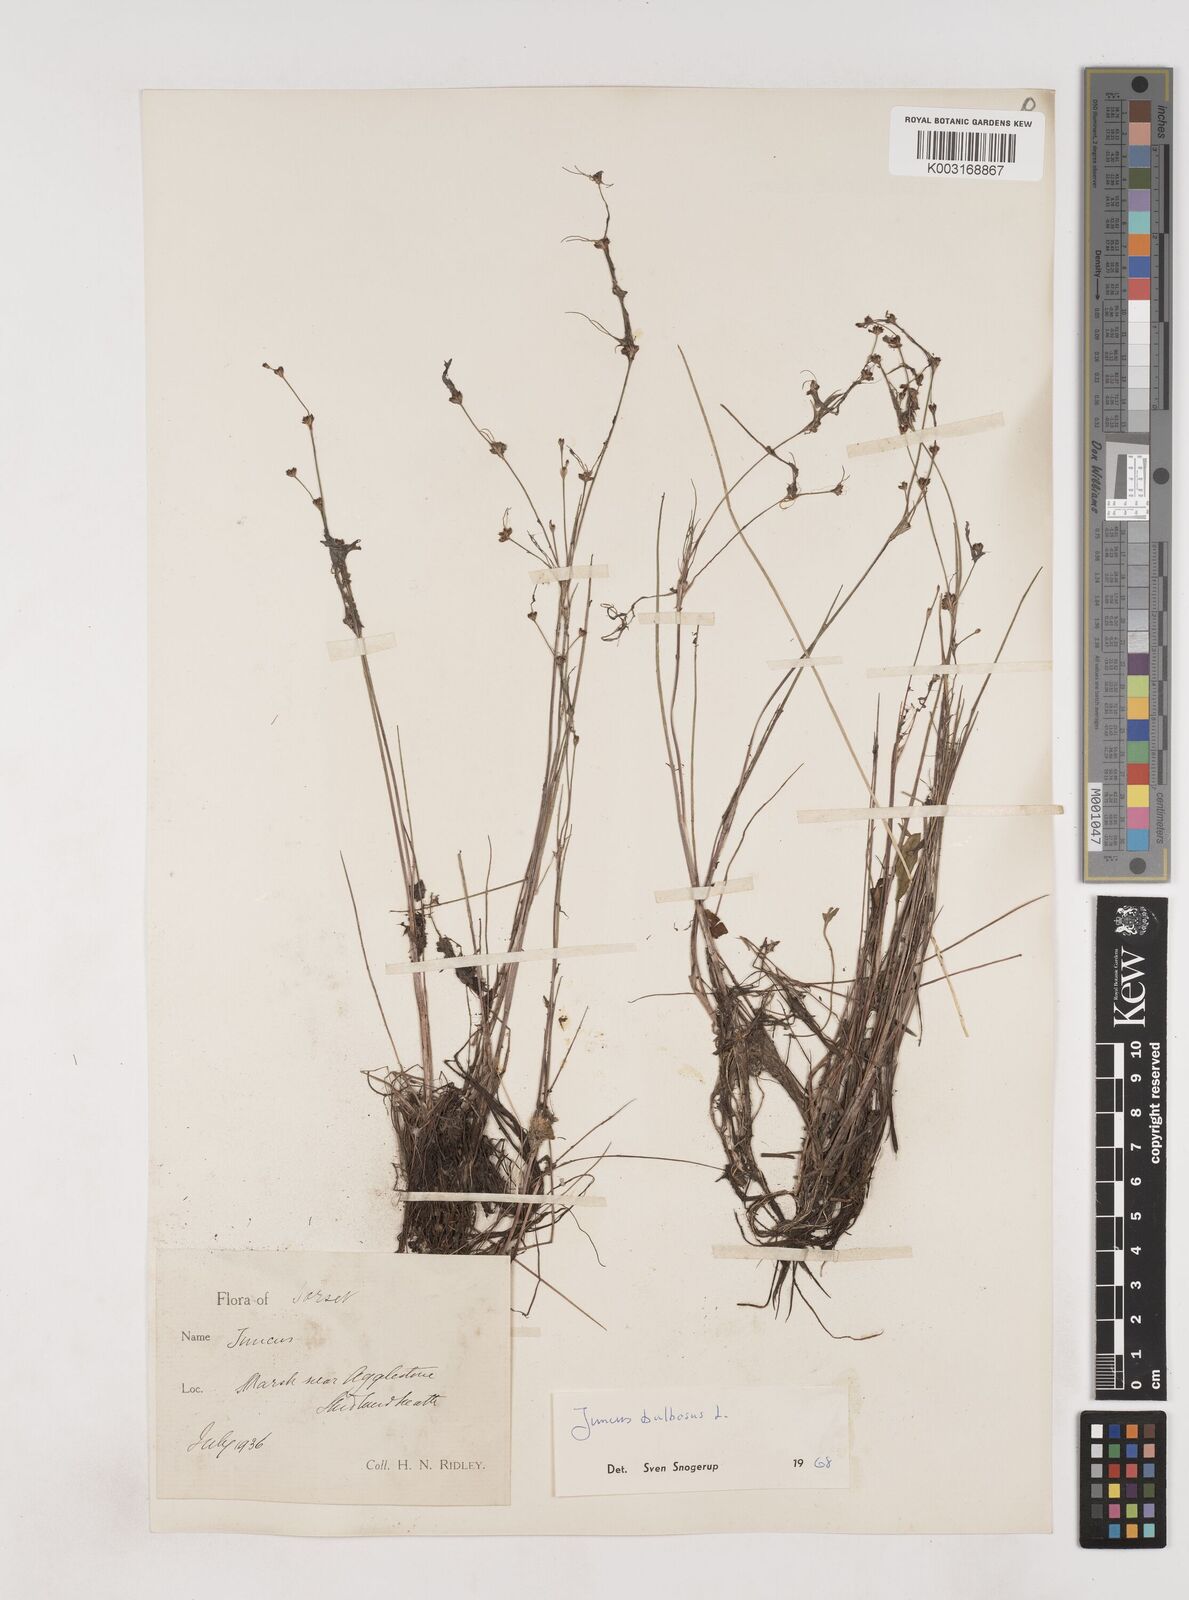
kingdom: Plantae
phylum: Tracheophyta
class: Liliopsida
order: Poales
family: Juncaceae
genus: Juncus
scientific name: Juncus bulbosus
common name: Bulbous rush
